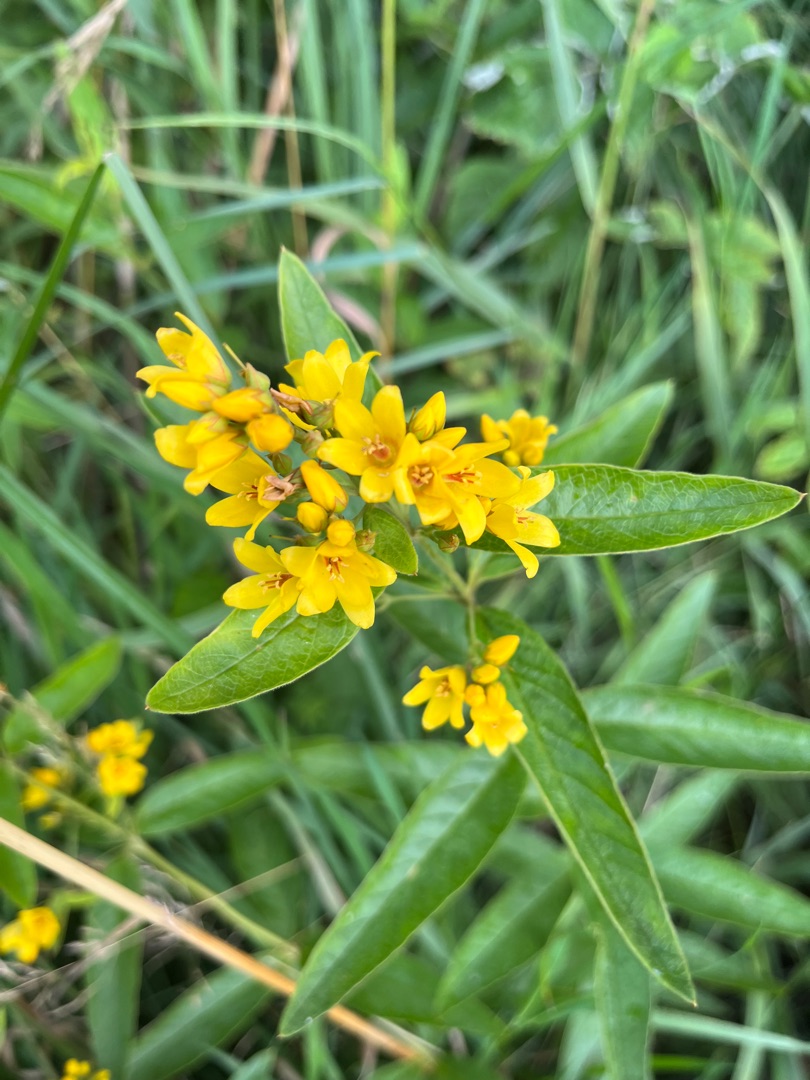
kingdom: Plantae
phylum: Tracheophyta
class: Magnoliopsida
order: Ericales
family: Primulaceae
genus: Lysimachia
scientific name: Lysimachia vulgaris
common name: Almindelig fredløs
